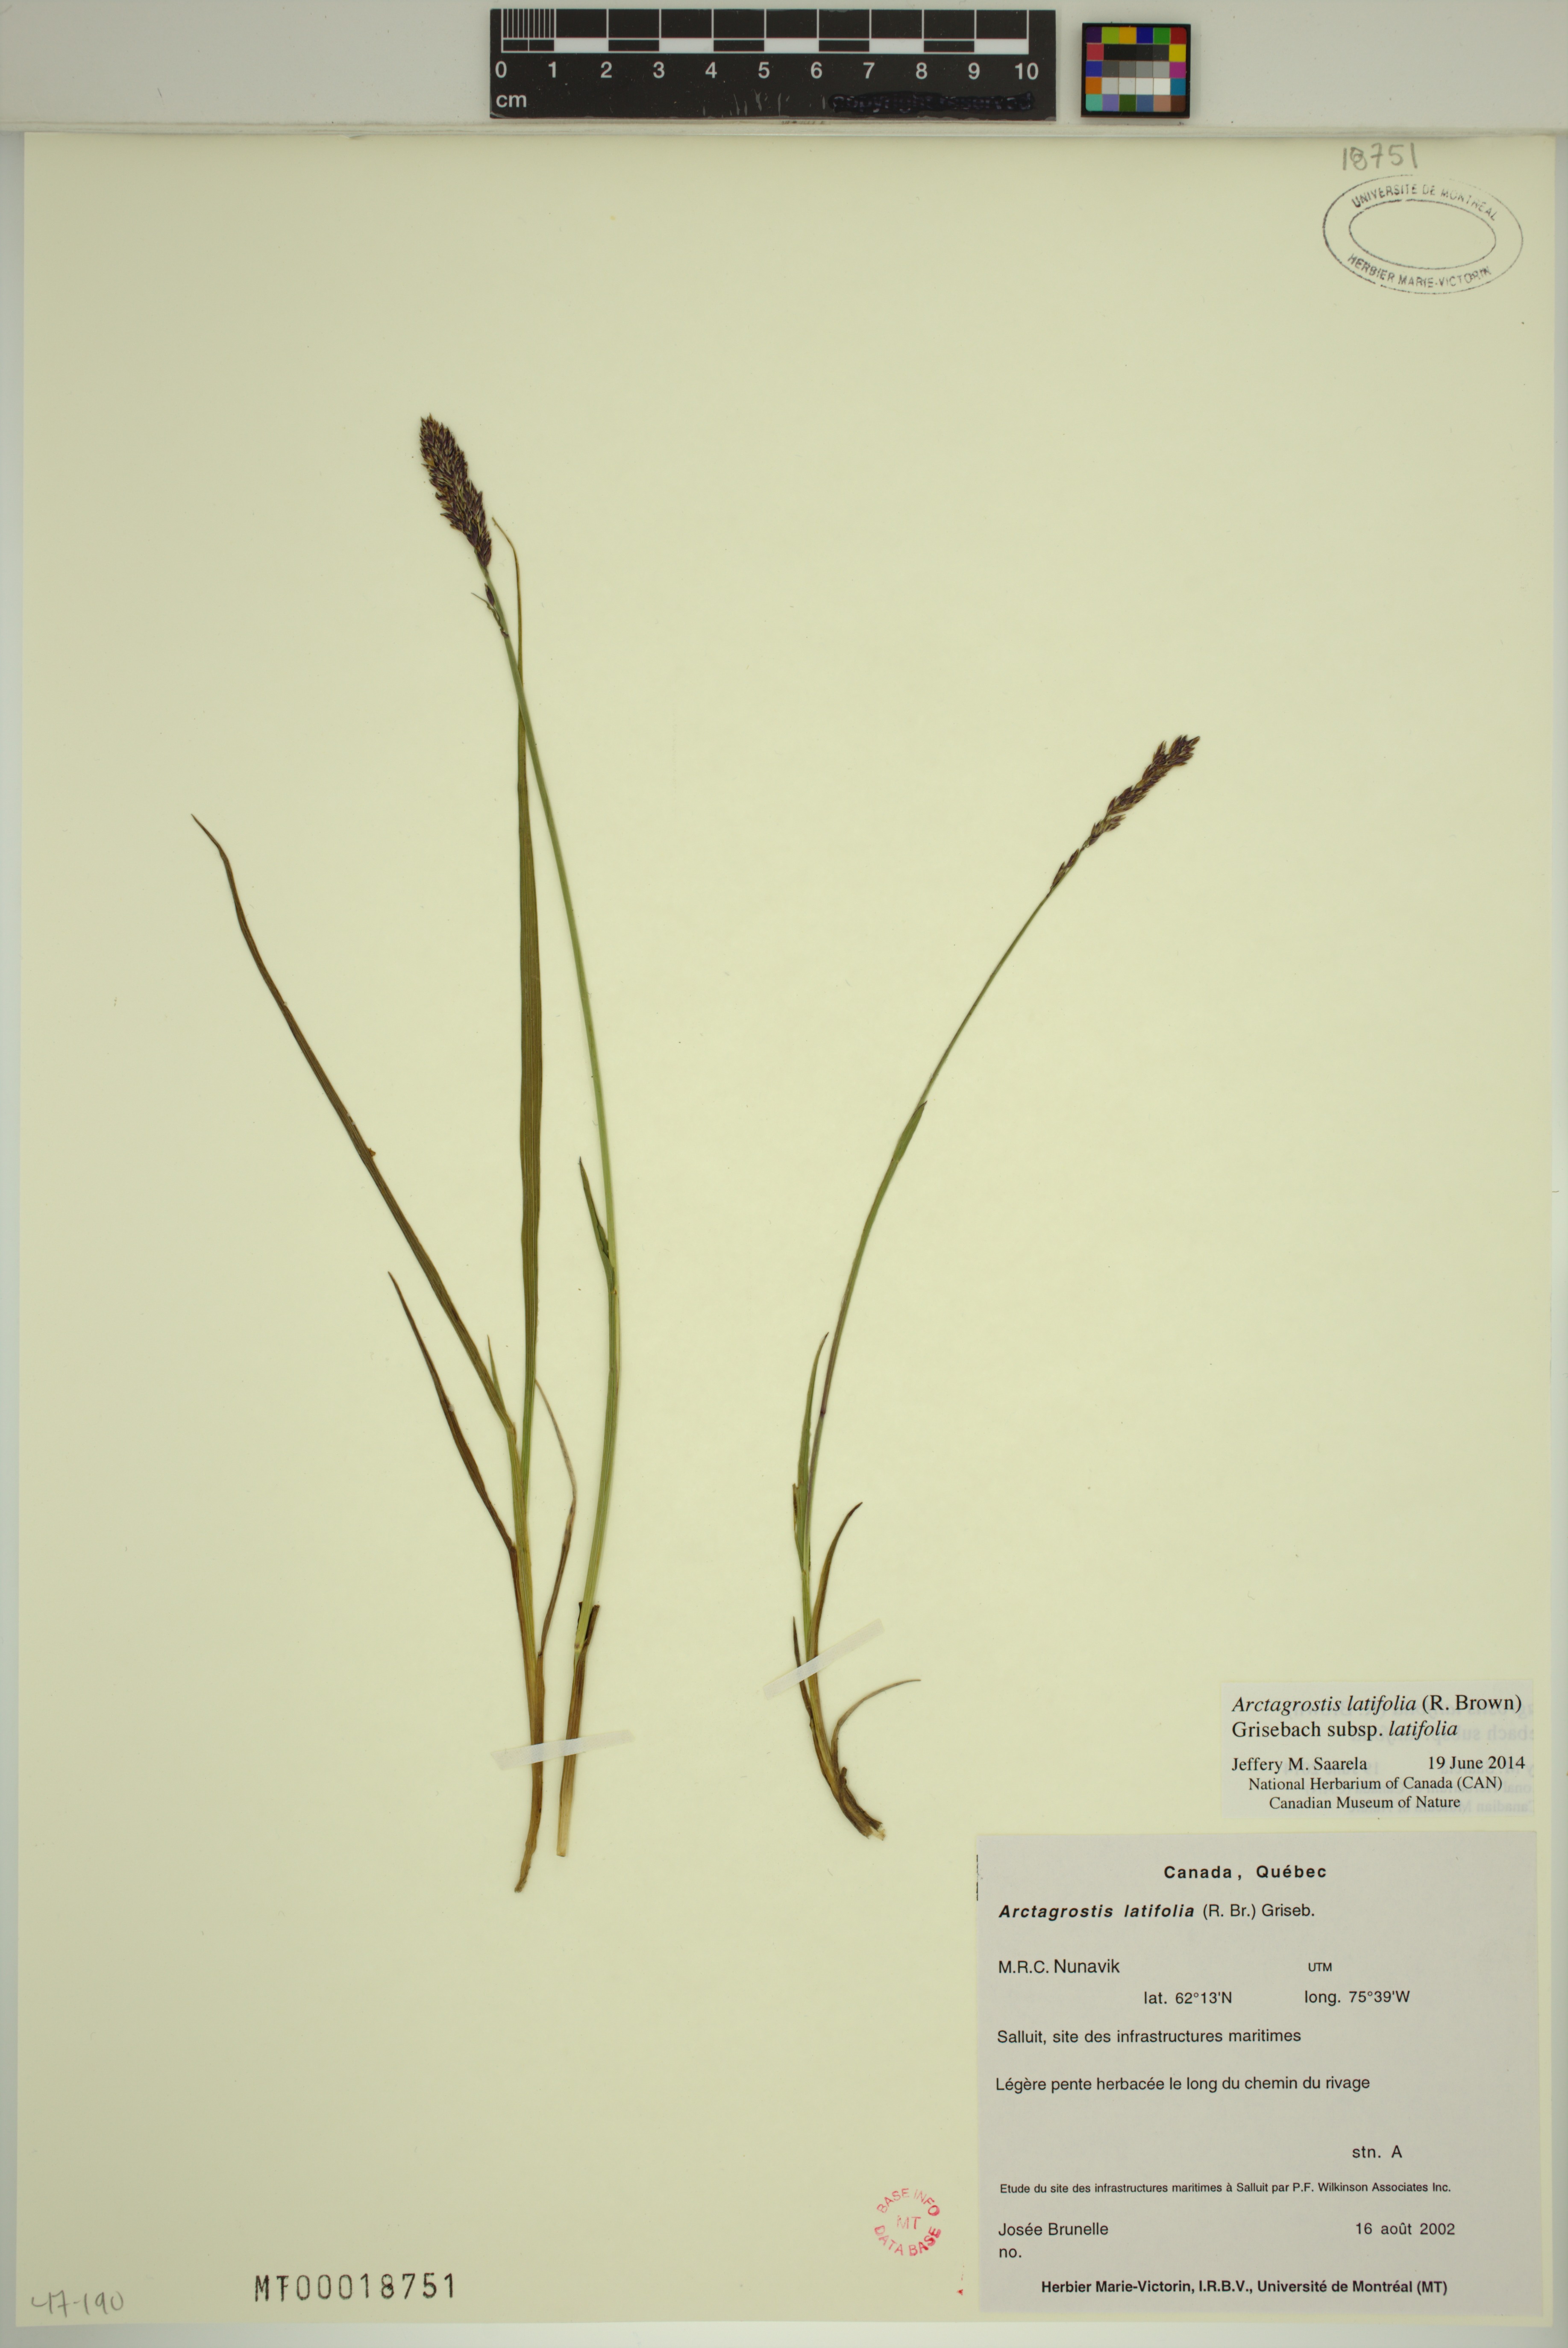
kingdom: Plantae
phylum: Tracheophyta
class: Liliopsida
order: Poales
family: Poaceae
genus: Arctagrostis
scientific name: Arctagrostis latifolia
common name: Arctic grass
